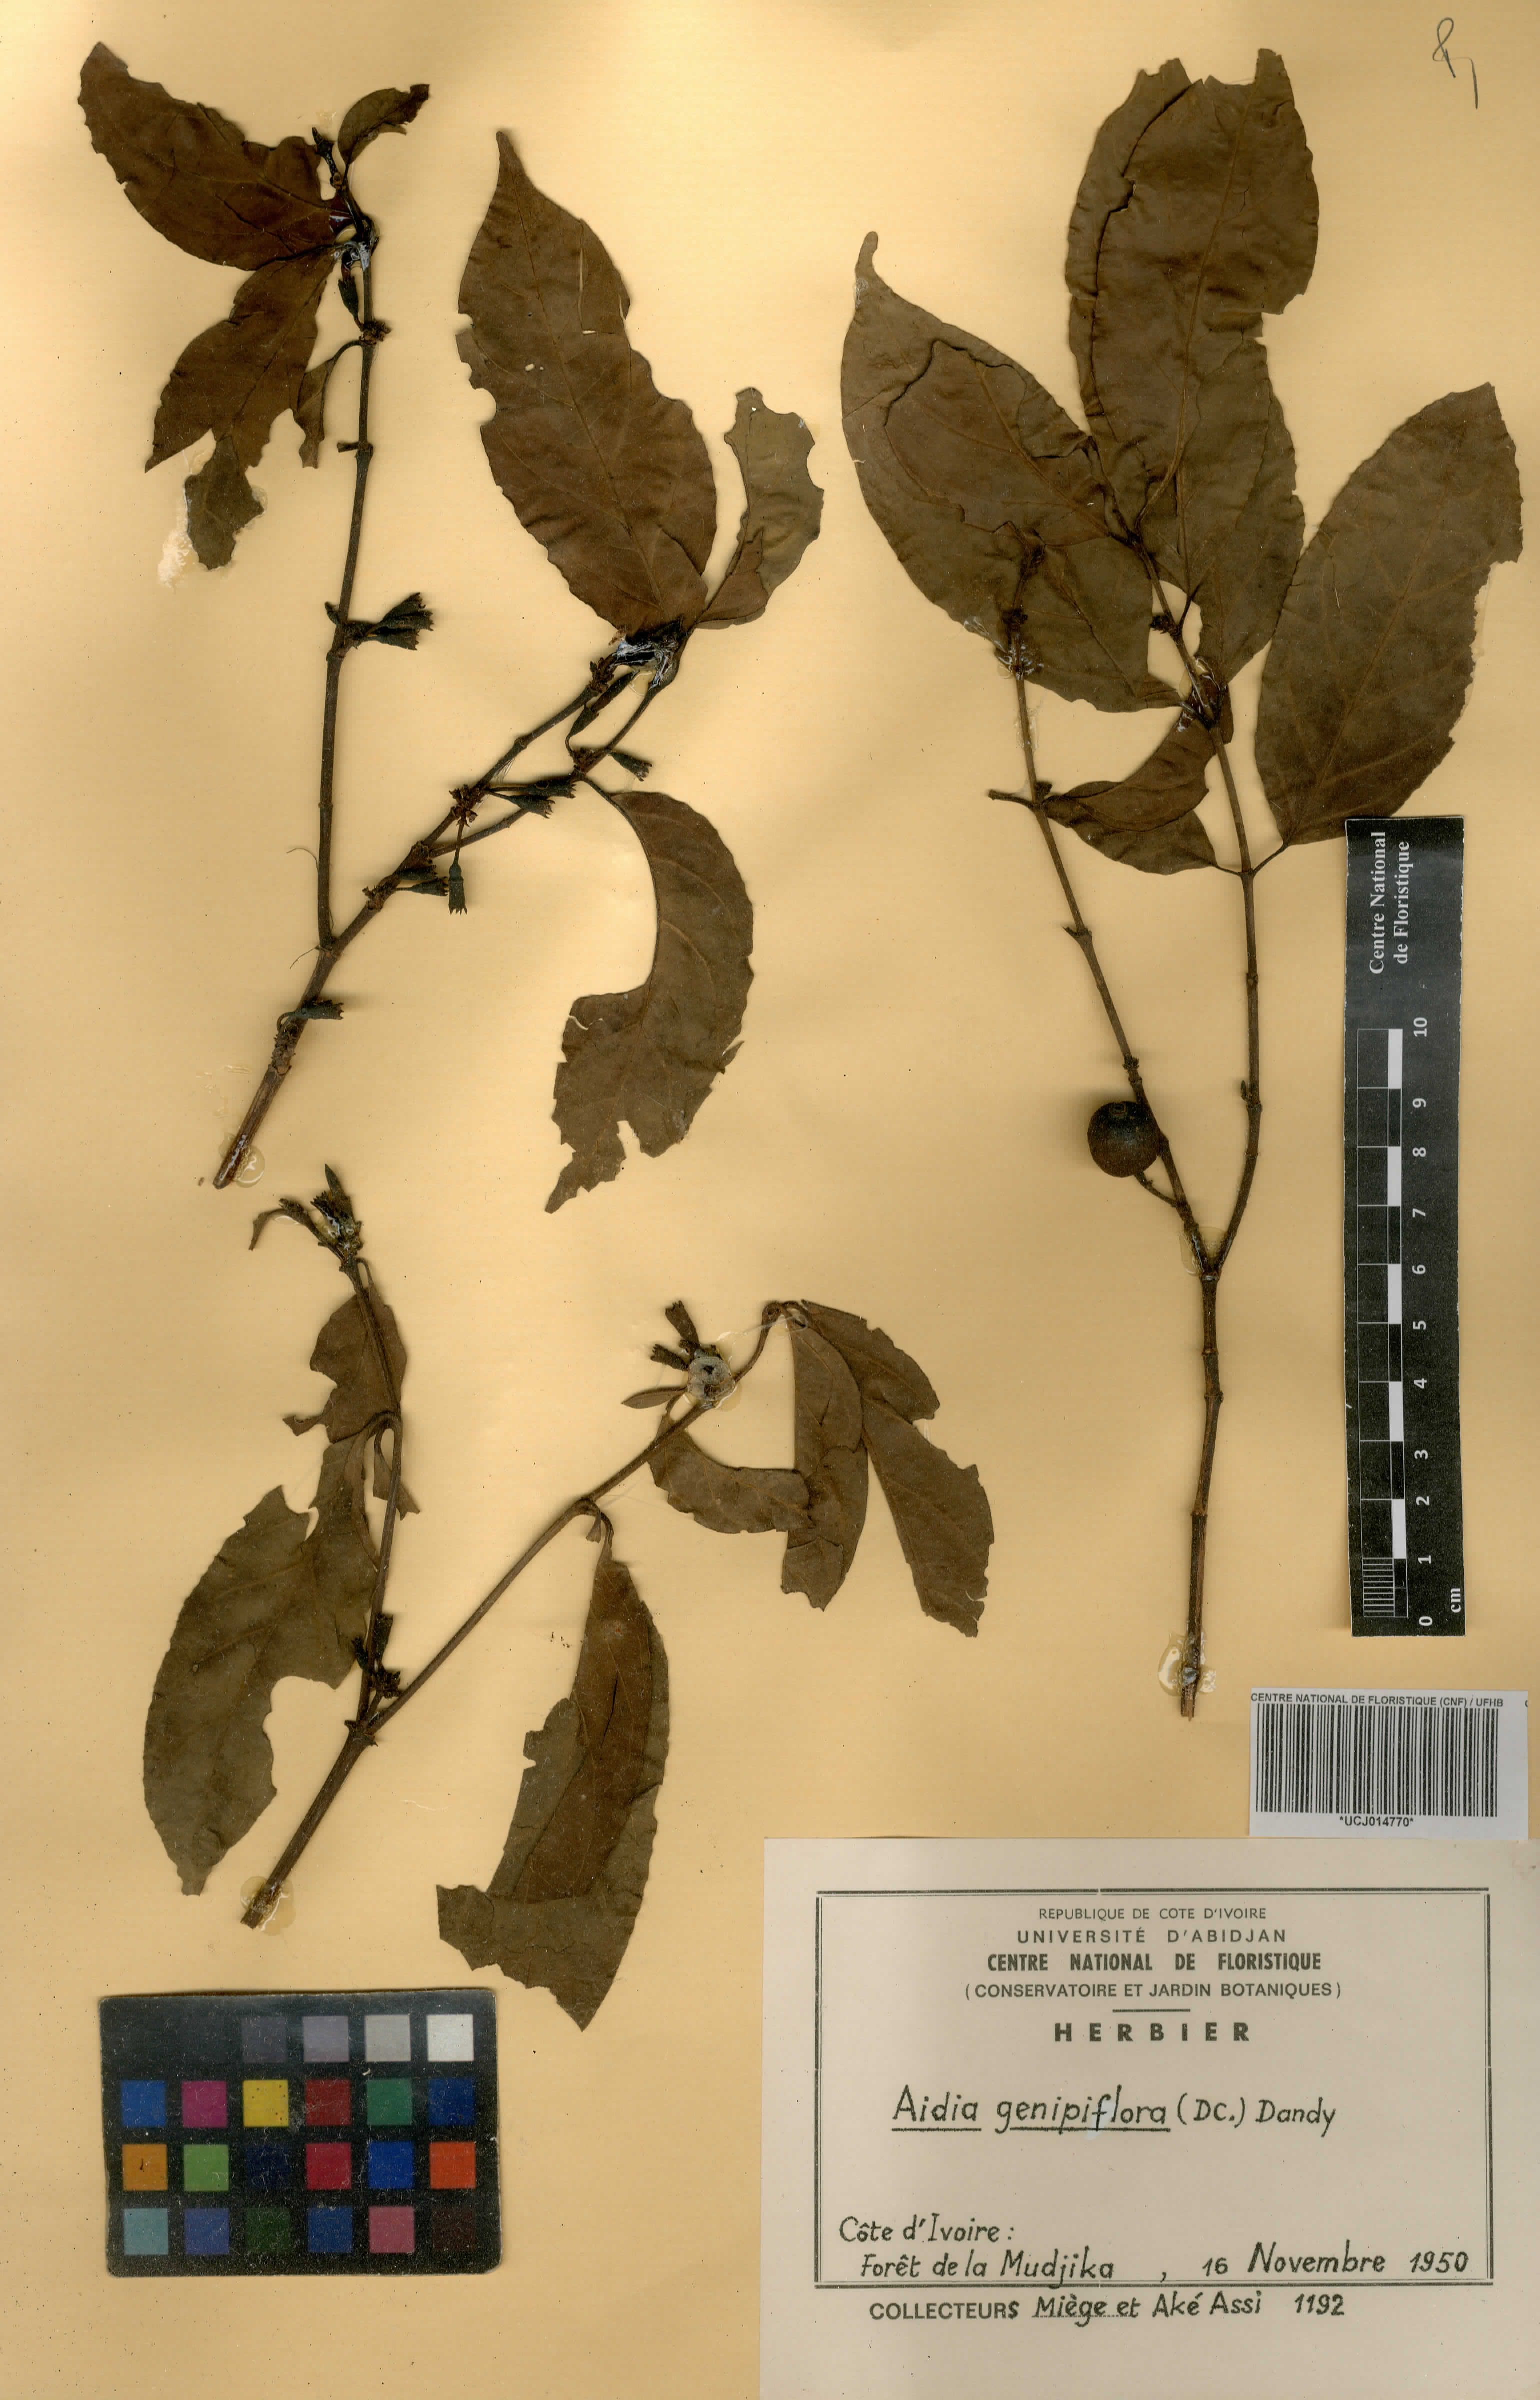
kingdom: Plantae
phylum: Tracheophyta
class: Magnoliopsida
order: Gentianales
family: Rubiaceae
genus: Aidia
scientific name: Aidia genipiflora
